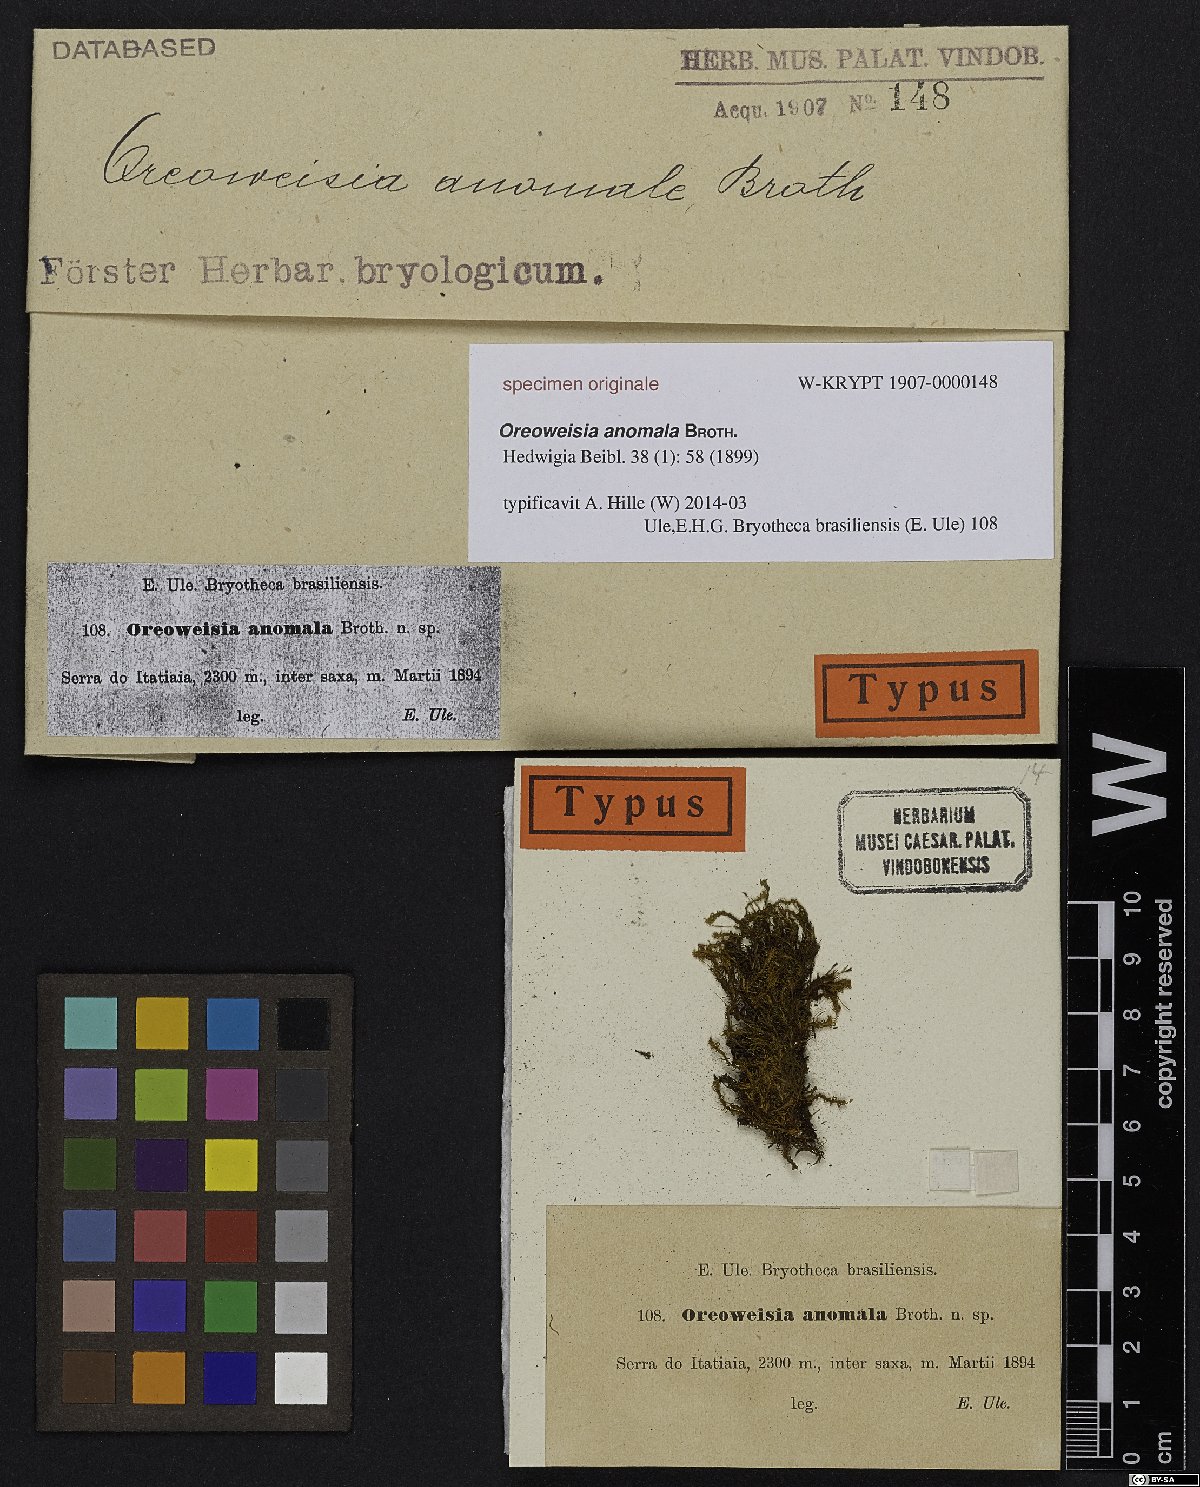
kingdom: Plantae
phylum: Bryophyta
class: Bryopsida
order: Dicranales
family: Dicranaceae
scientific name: Dicranaceae
